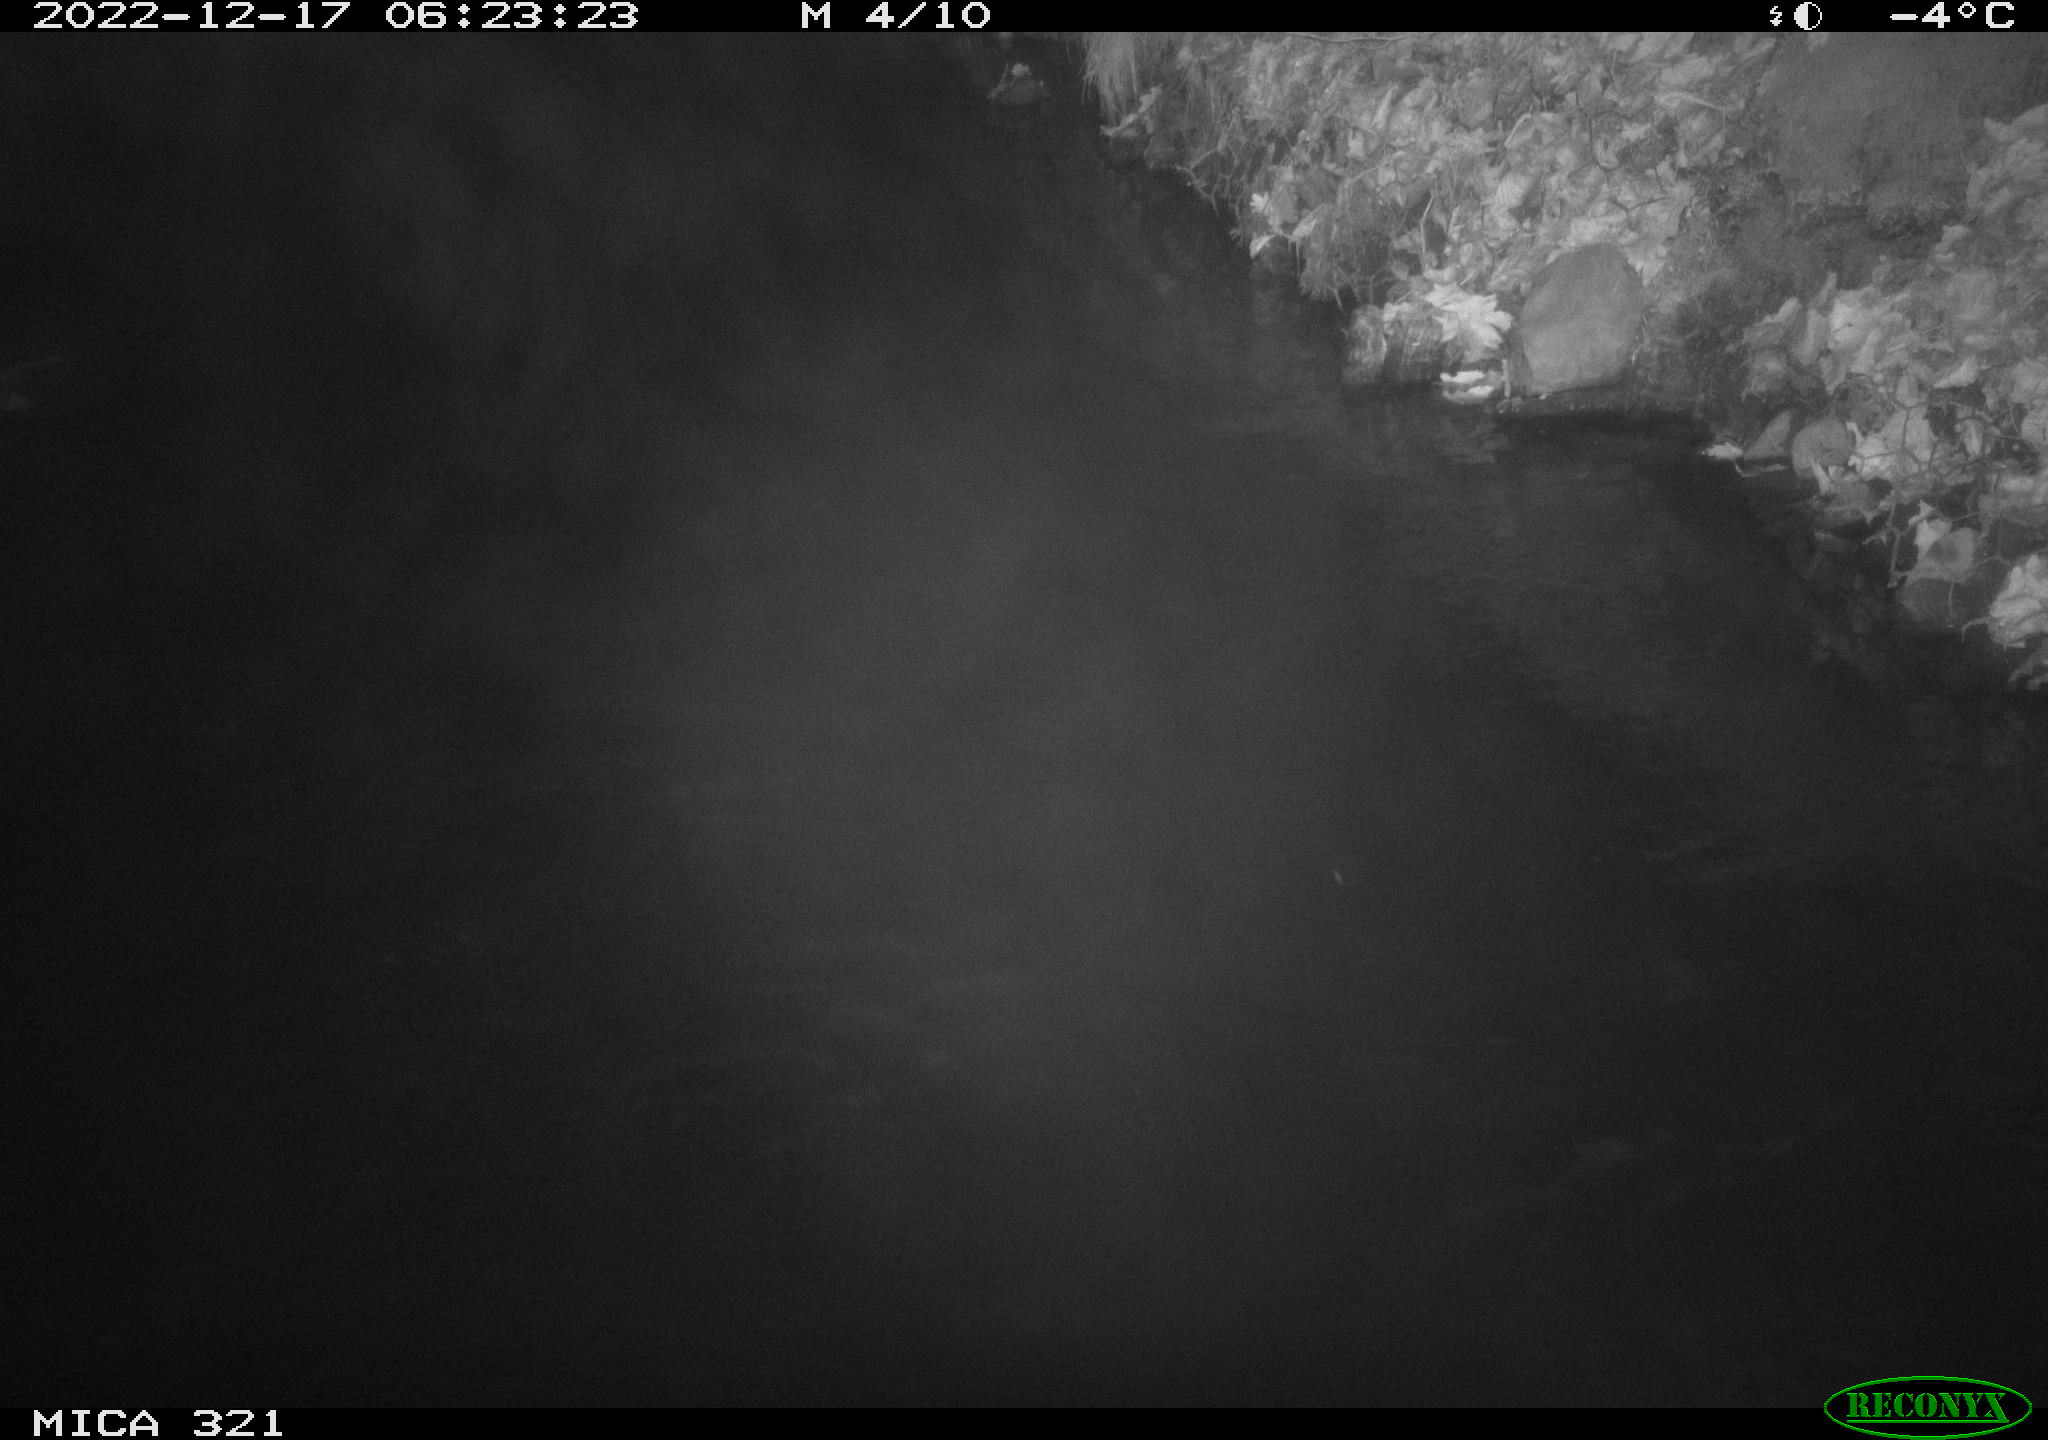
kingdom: Animalia
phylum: Chordata
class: Aves
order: Anseriformes
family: Anatidae
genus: Anas
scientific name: Anas
